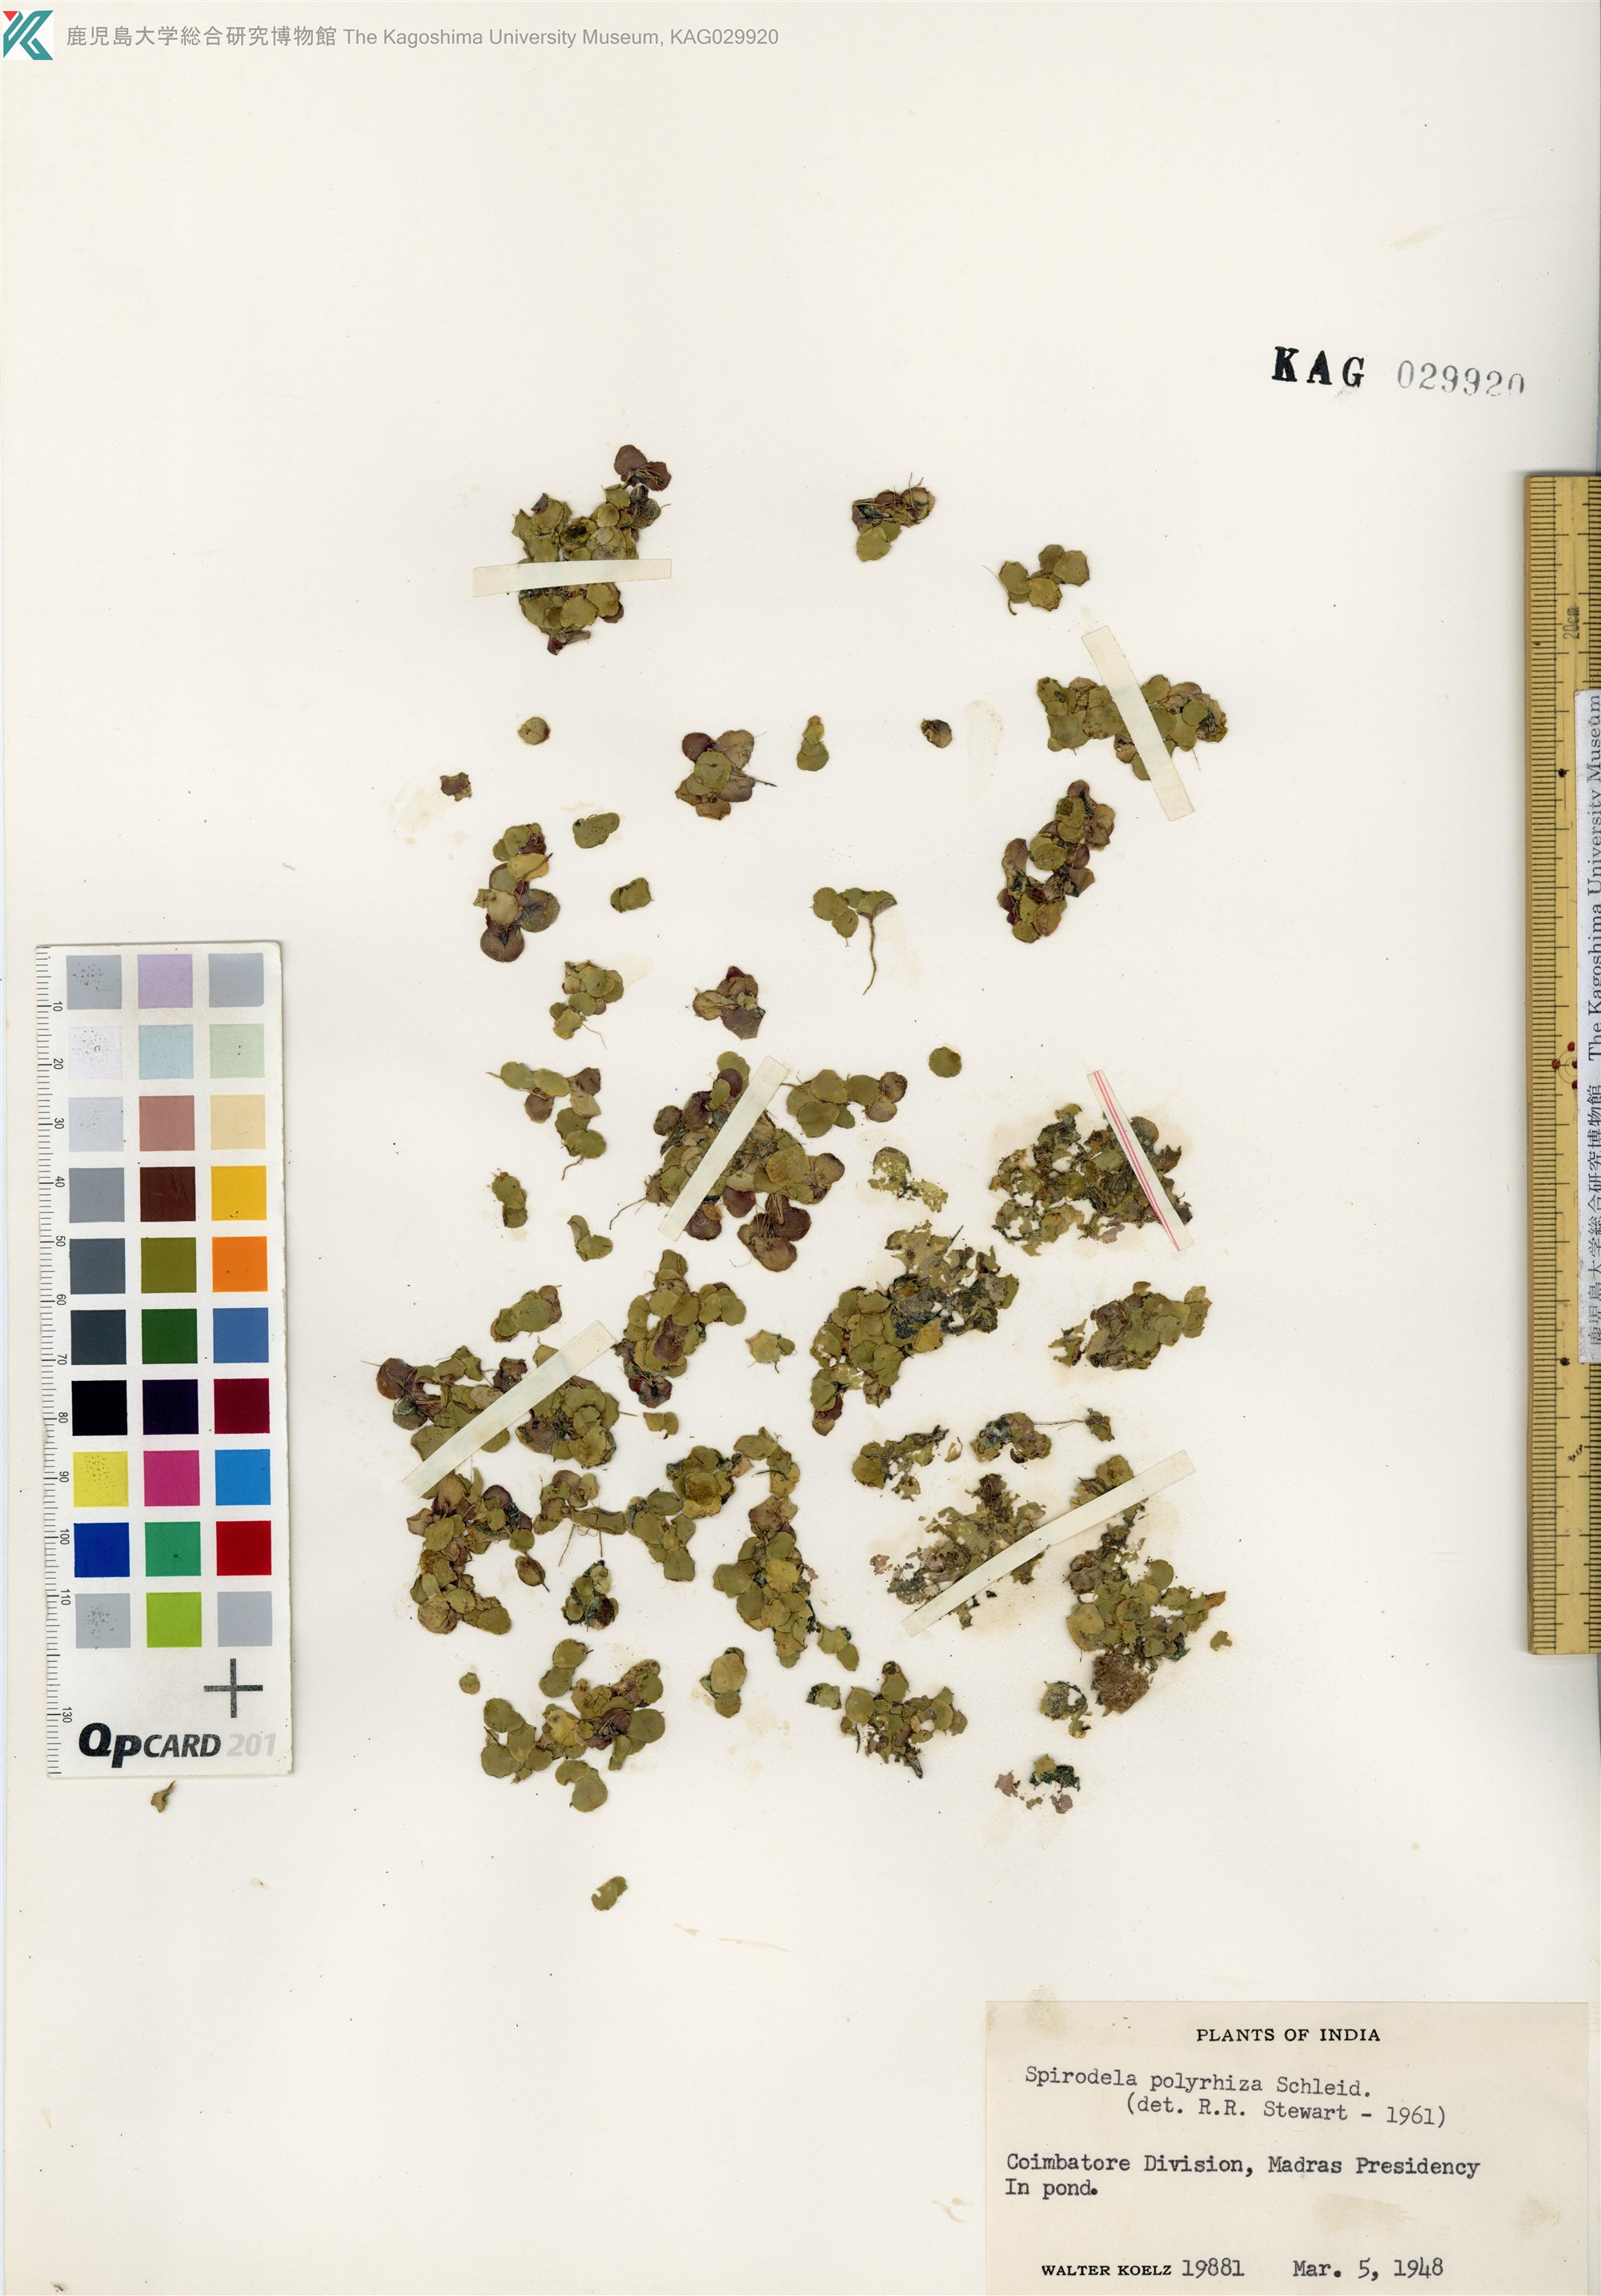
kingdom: Plantae
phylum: Tracheophyta
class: Liliopsida
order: Alismatales
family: Araceae
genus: Spirodela
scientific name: Spirodela polyrhiza
